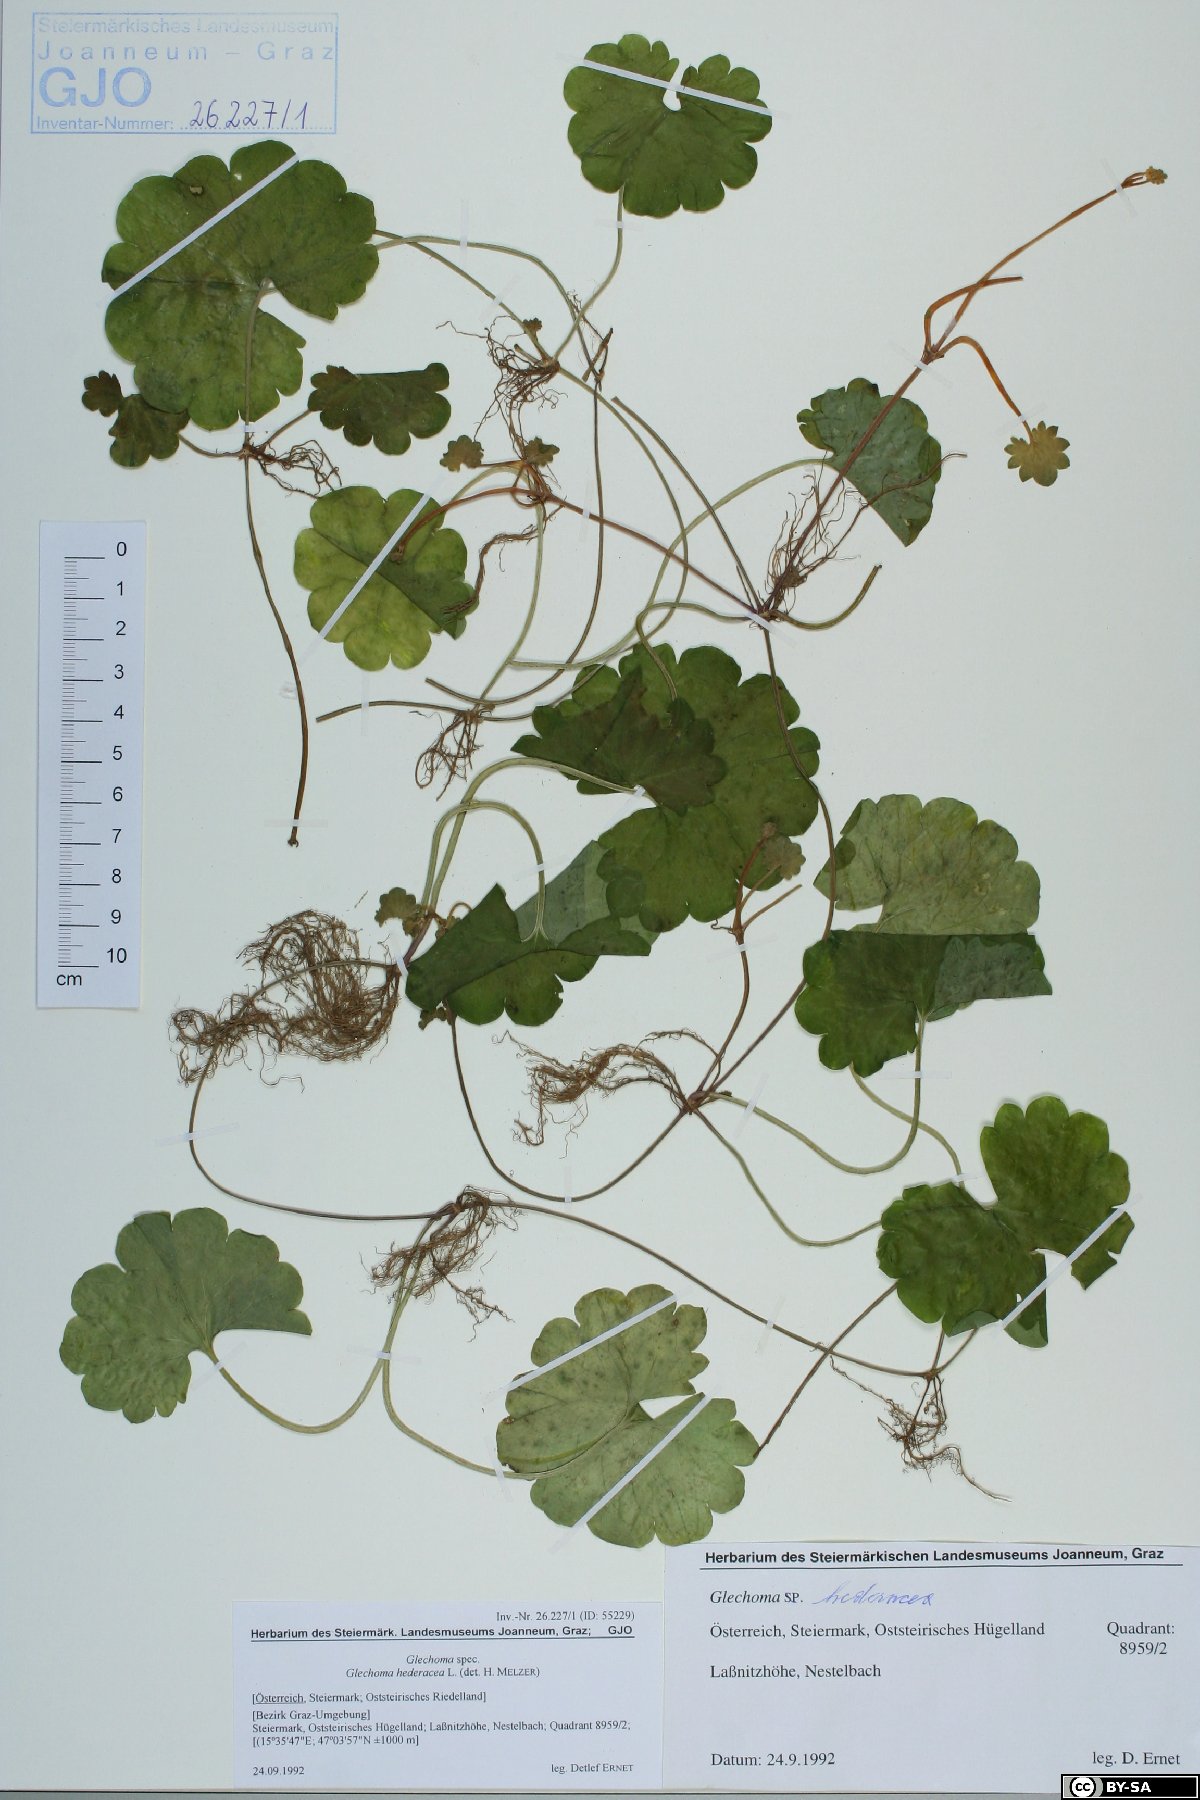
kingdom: Plantae
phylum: Tracheophyta
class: Magnoliopsida
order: Lamiales
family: Lamiaceae
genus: Glechoma
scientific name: Glechoma hederacea
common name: Ground ivy
